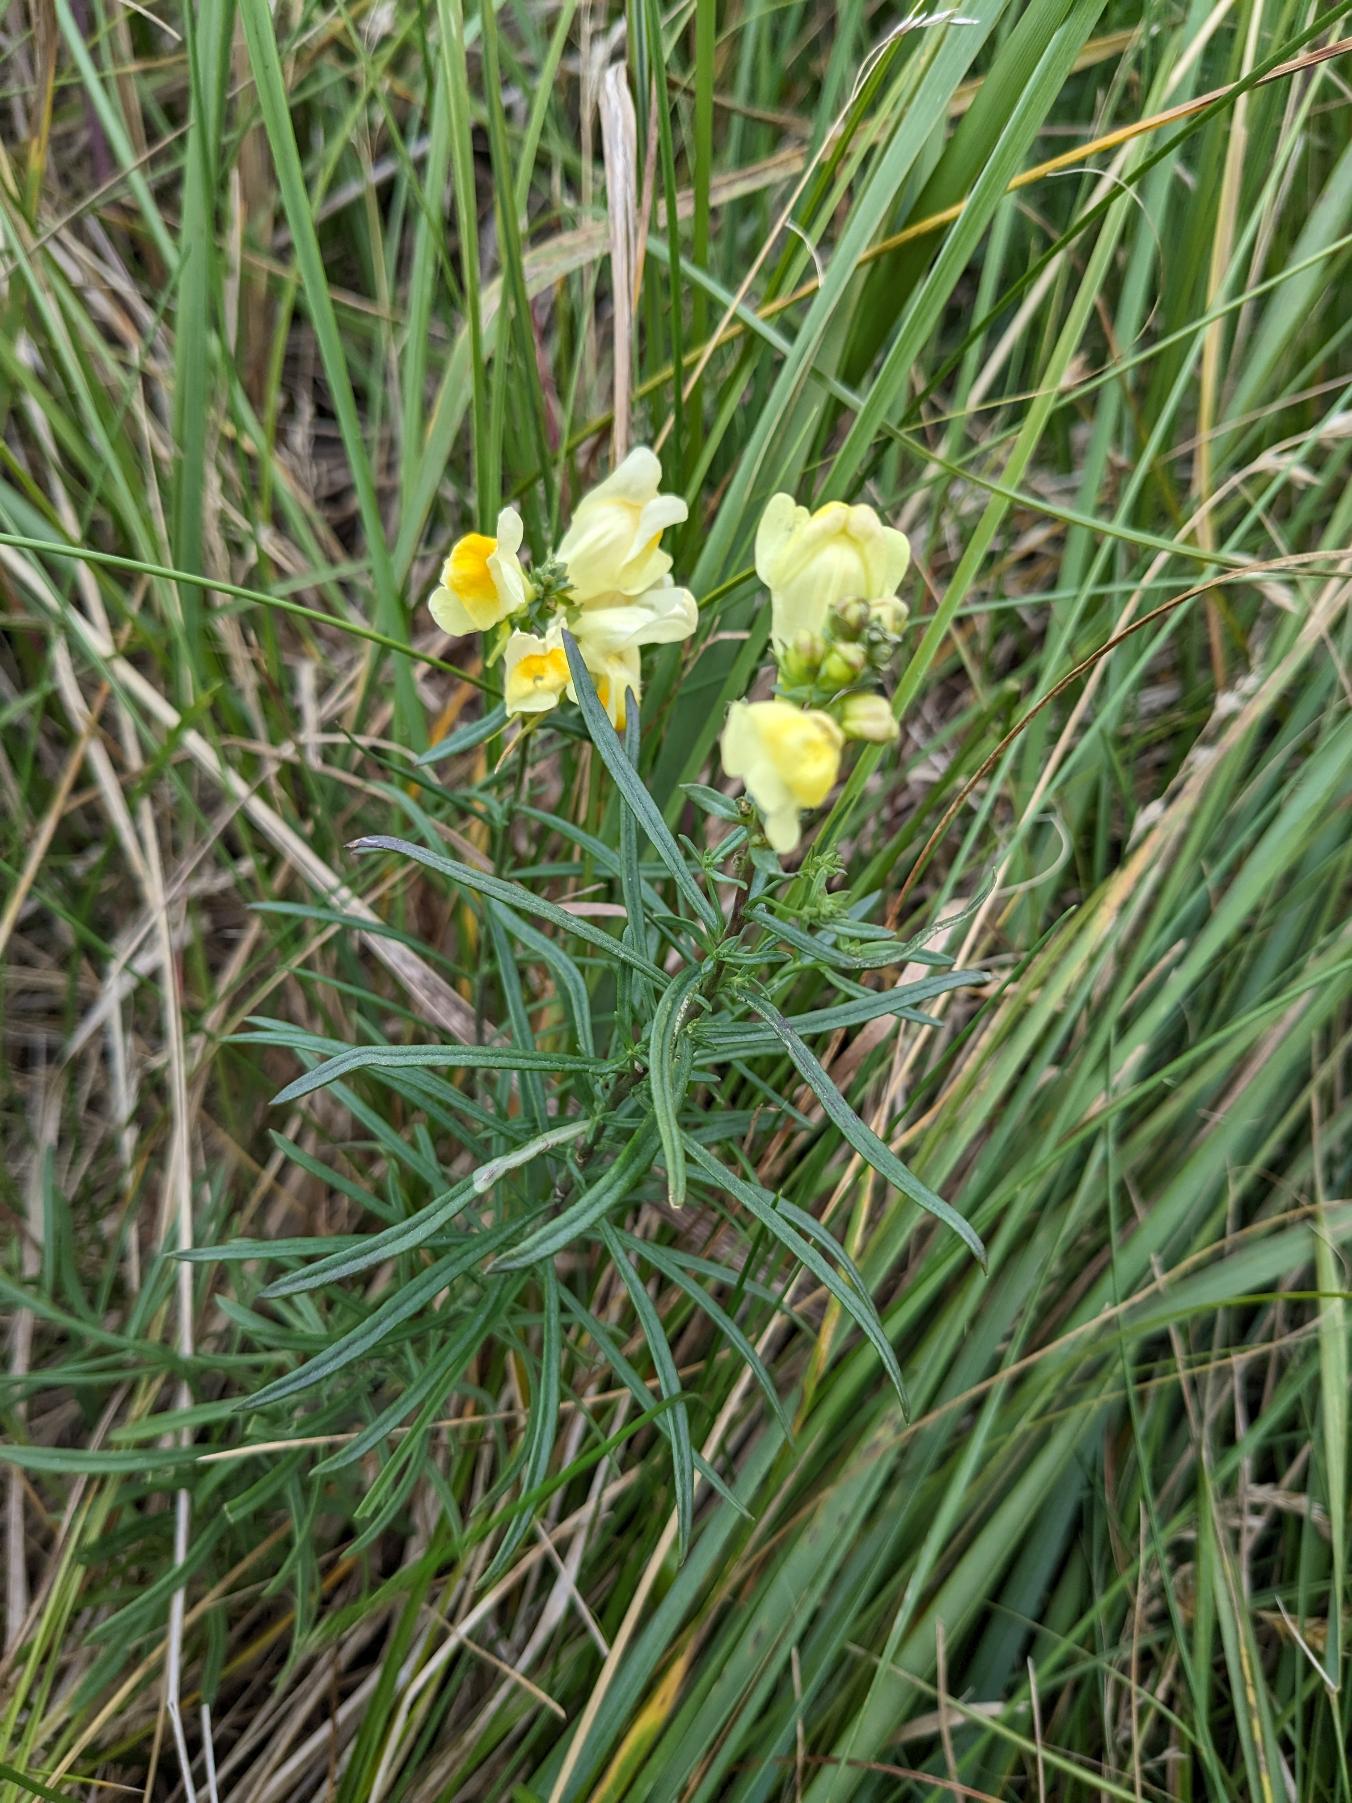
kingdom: Plantae
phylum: Tracheophyta
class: Magnoliopsida
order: Lamiales
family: Plantaginaceae
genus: Linaria
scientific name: Linaria vulgaris
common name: Almindelig torskemund
